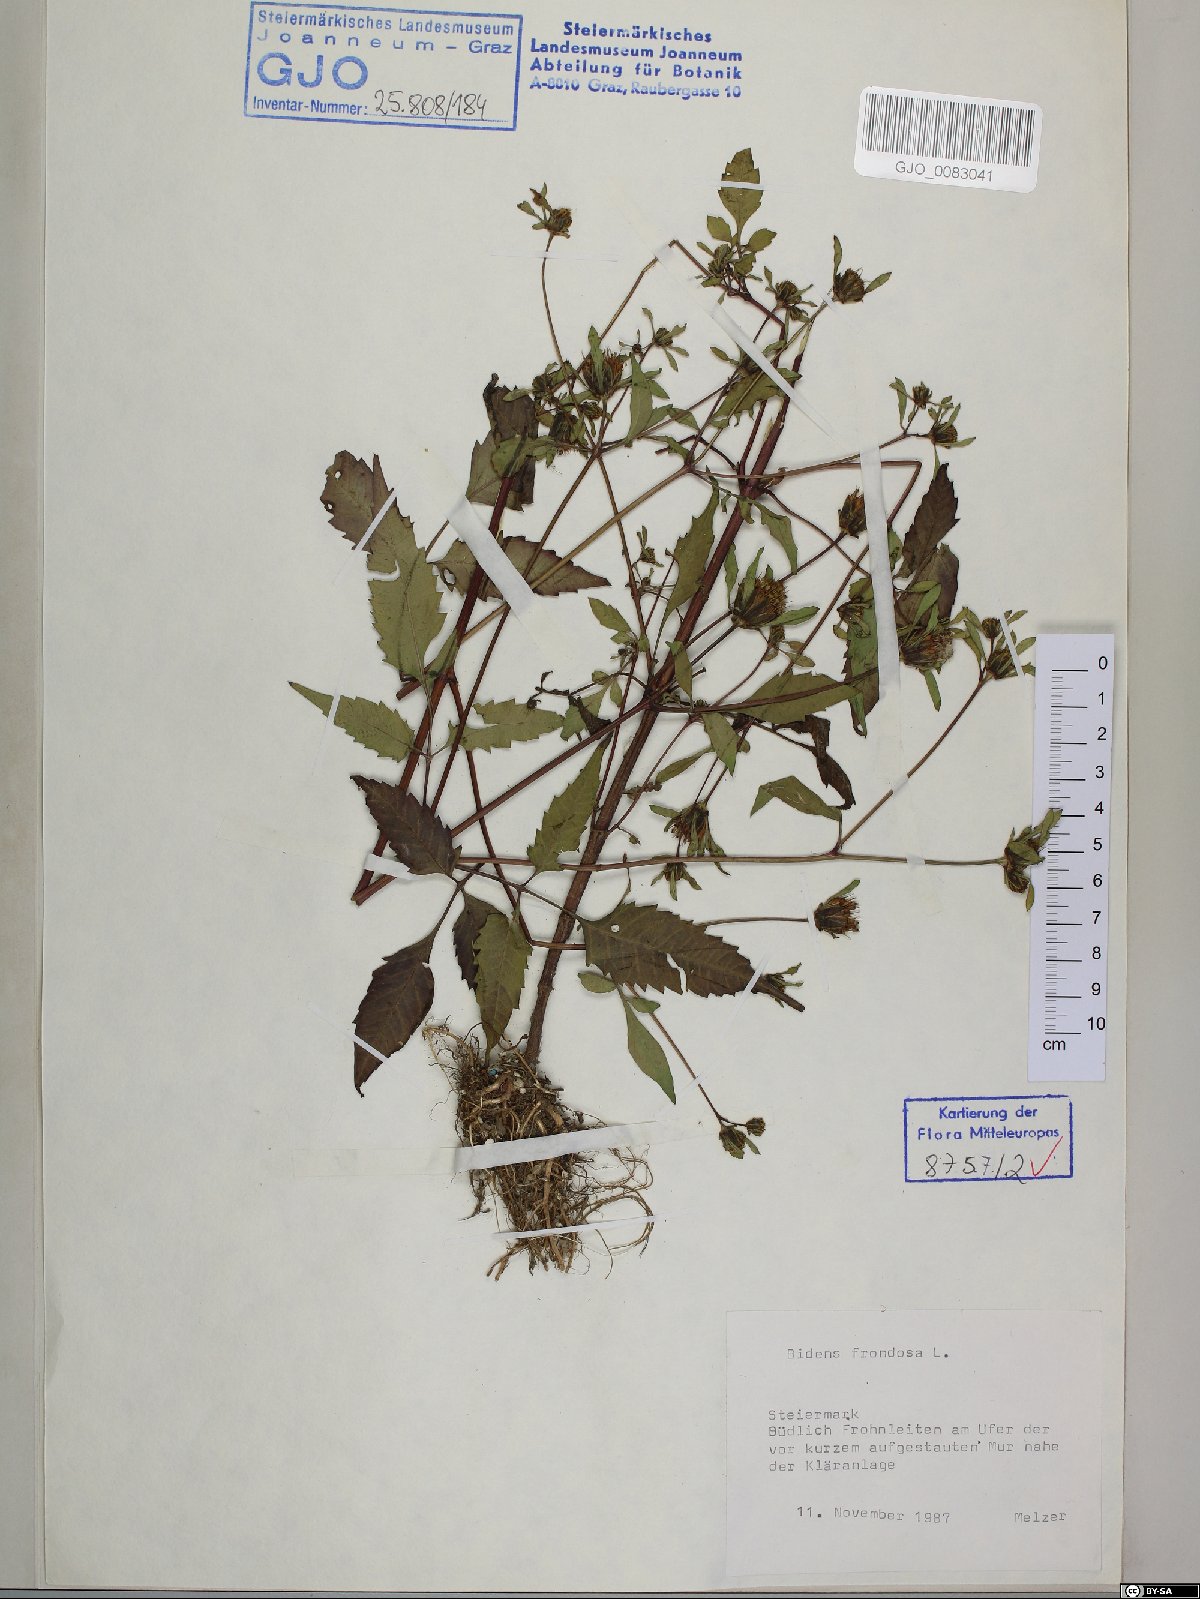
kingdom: Plantae
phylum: Tracheophyta
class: Magnoliopsida
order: Asterales
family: Asteraceae
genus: Bidens
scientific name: Bidens frondosa
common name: Beggarticks
